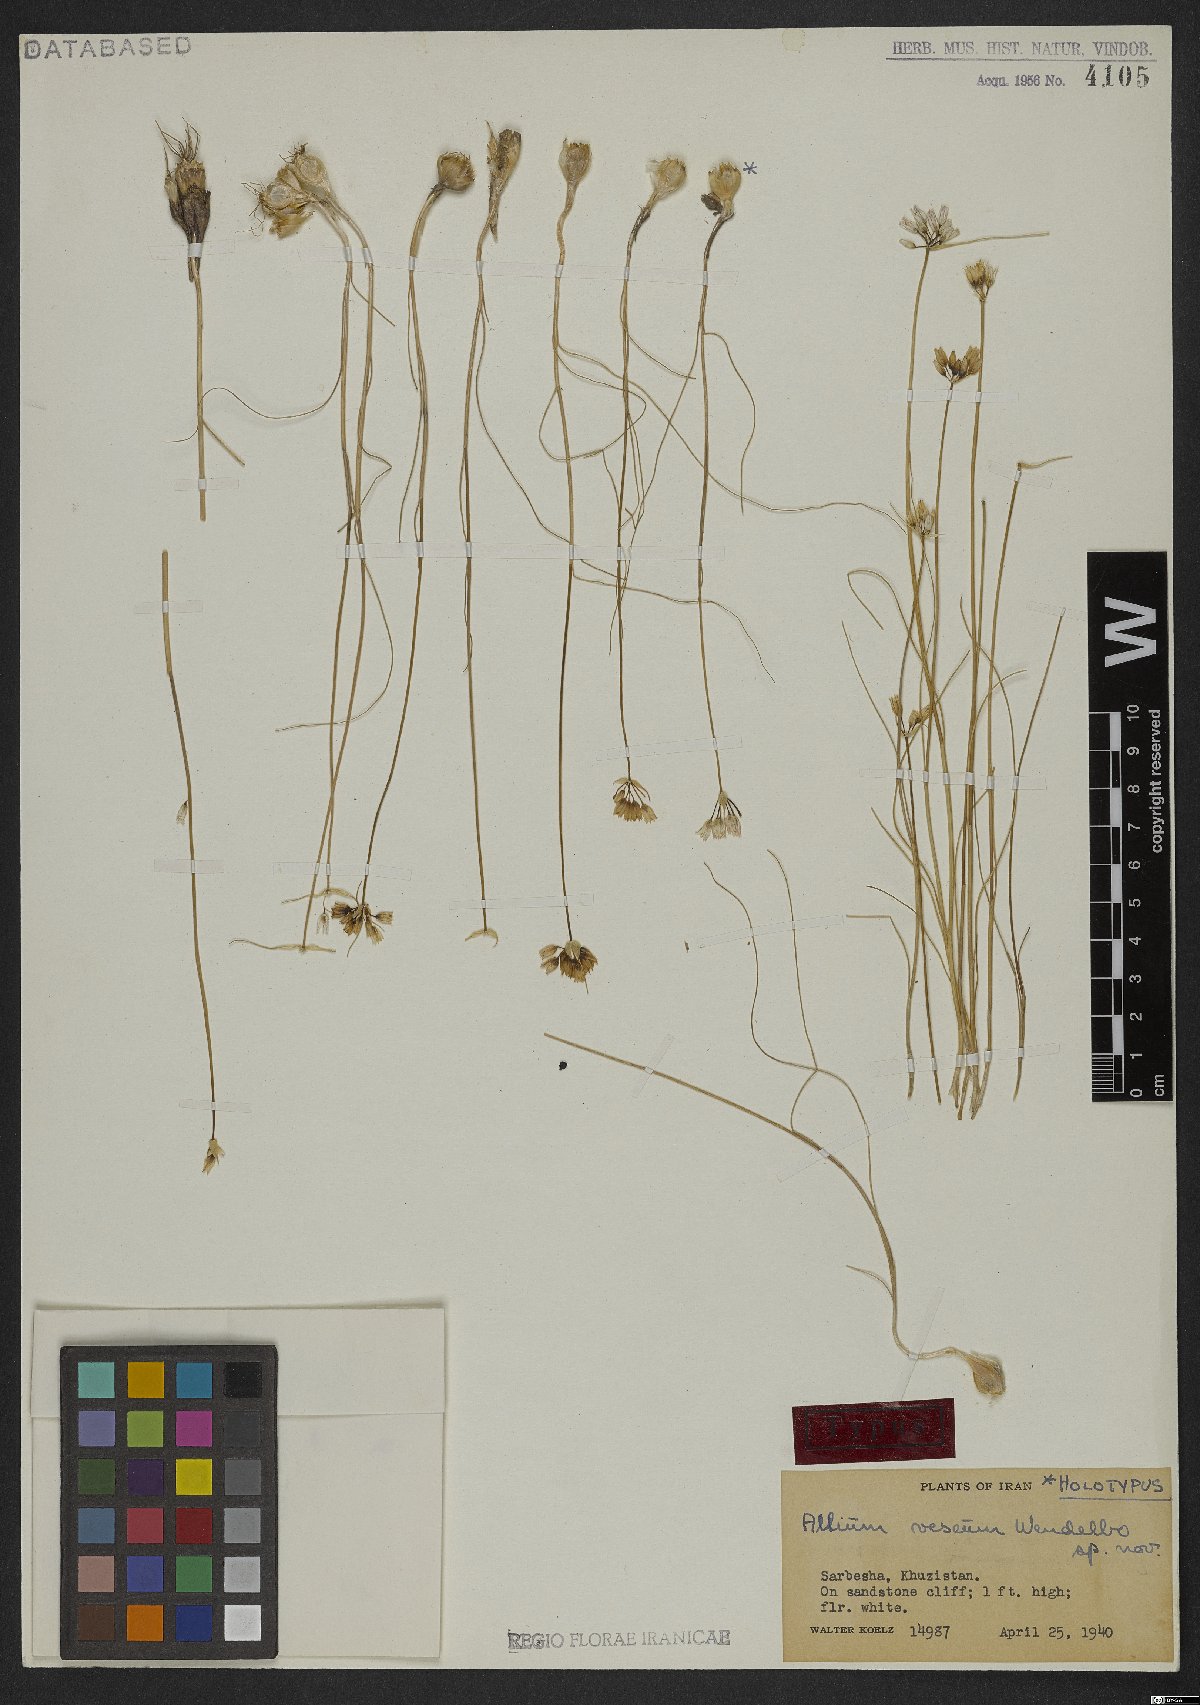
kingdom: Plantae
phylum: Tracheophyta
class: Liliopsida
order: Asparagales
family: Amaryllidaceae
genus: Allium
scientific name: Allium vescum
